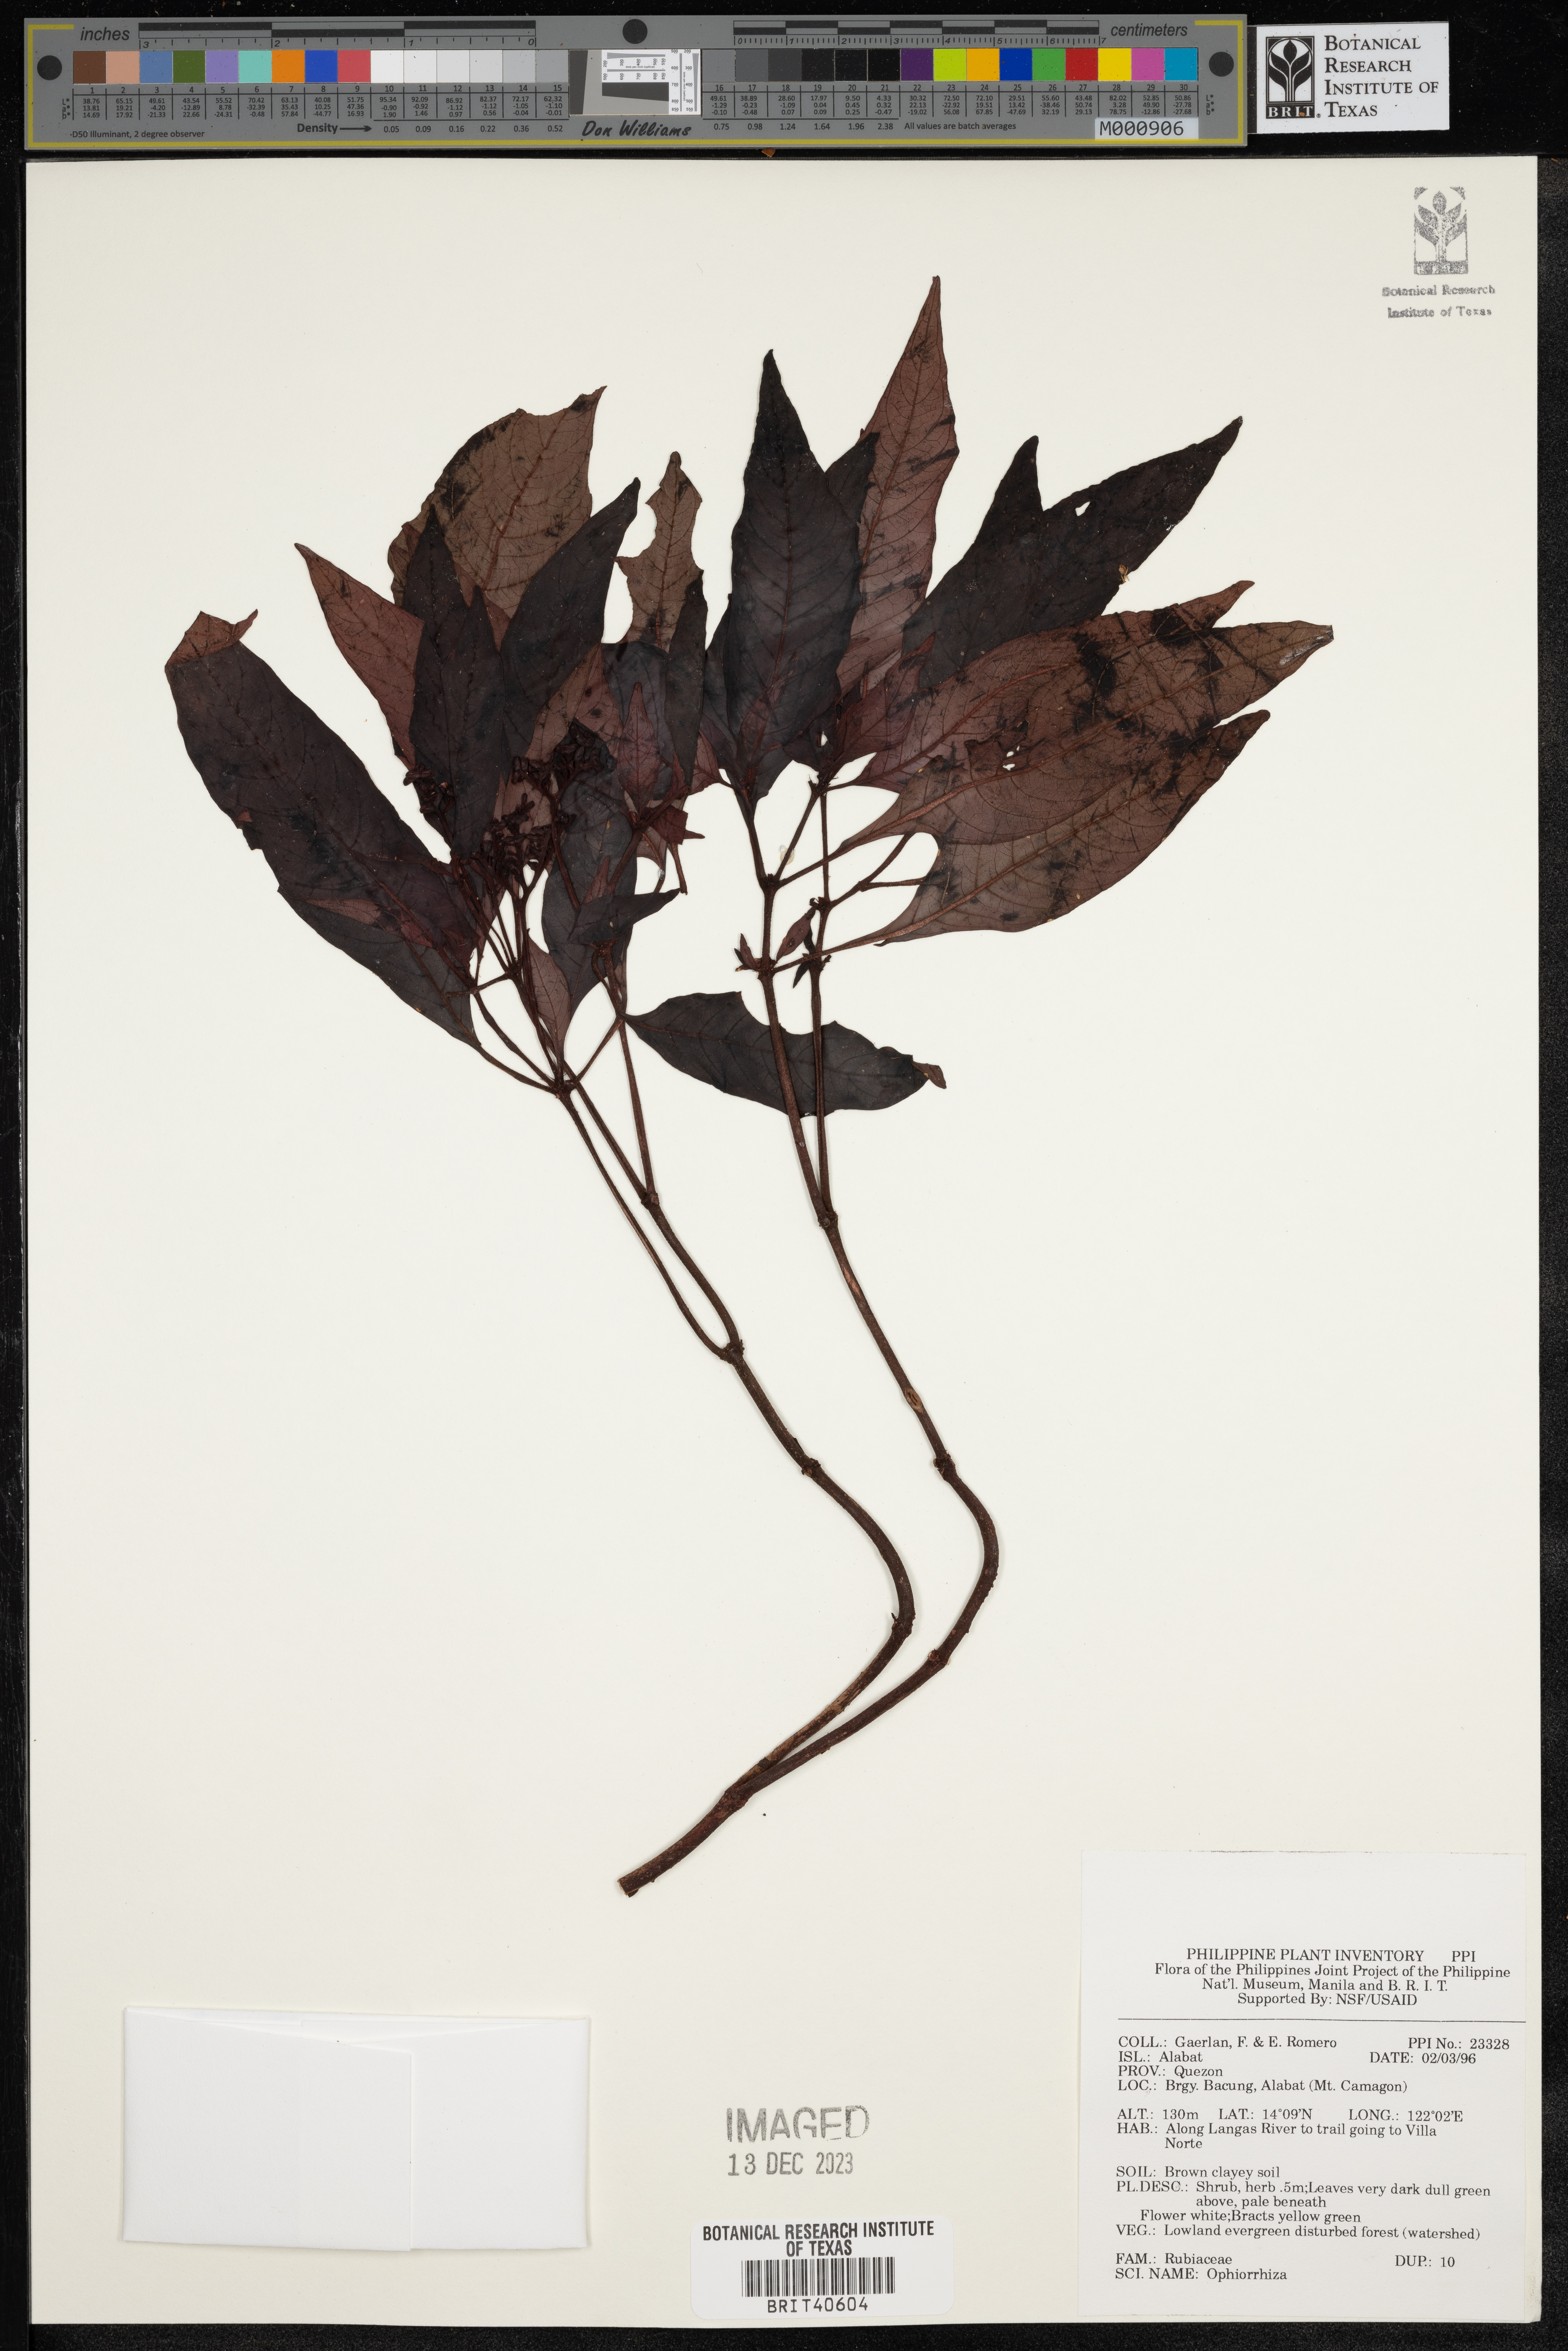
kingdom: Plantae
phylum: Tracheophyta
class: Magnoliopsida
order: Gentianales
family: Rubiaceae
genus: Ophiorrhiza
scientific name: Ophiorrhiza
